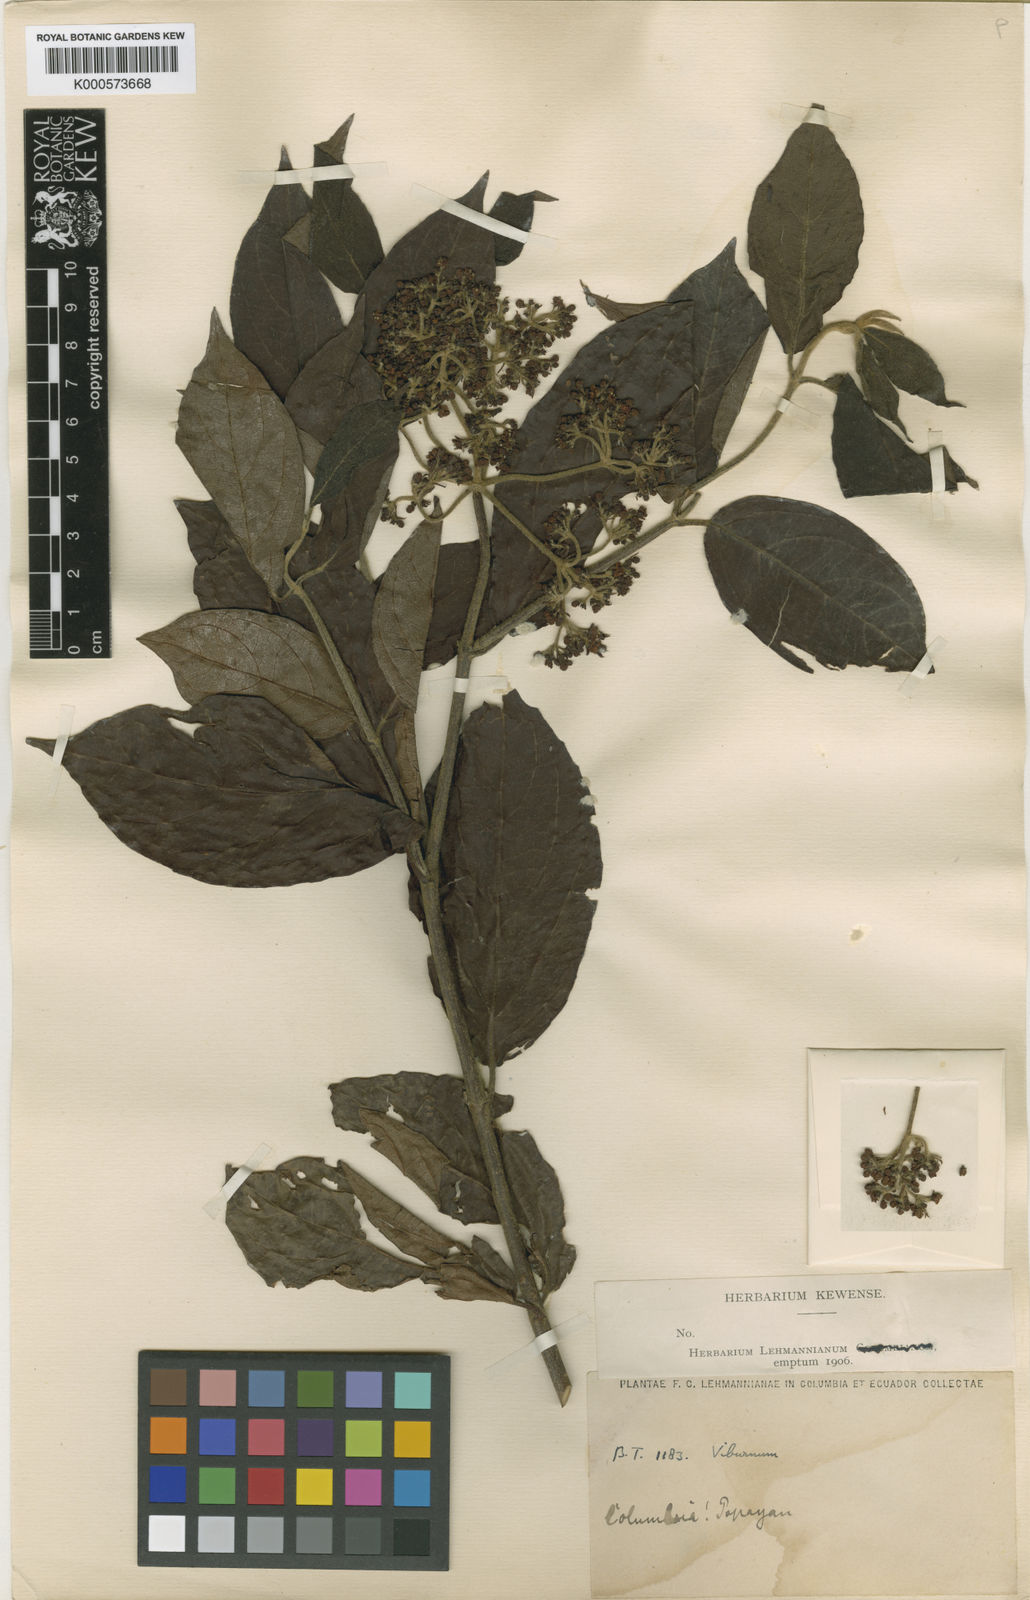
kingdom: Plantae
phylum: Tracheophyta
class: Magnoliopsida
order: Dipsacales
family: Viburnaceae
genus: Viburnum
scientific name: Viburnum lehmannii
